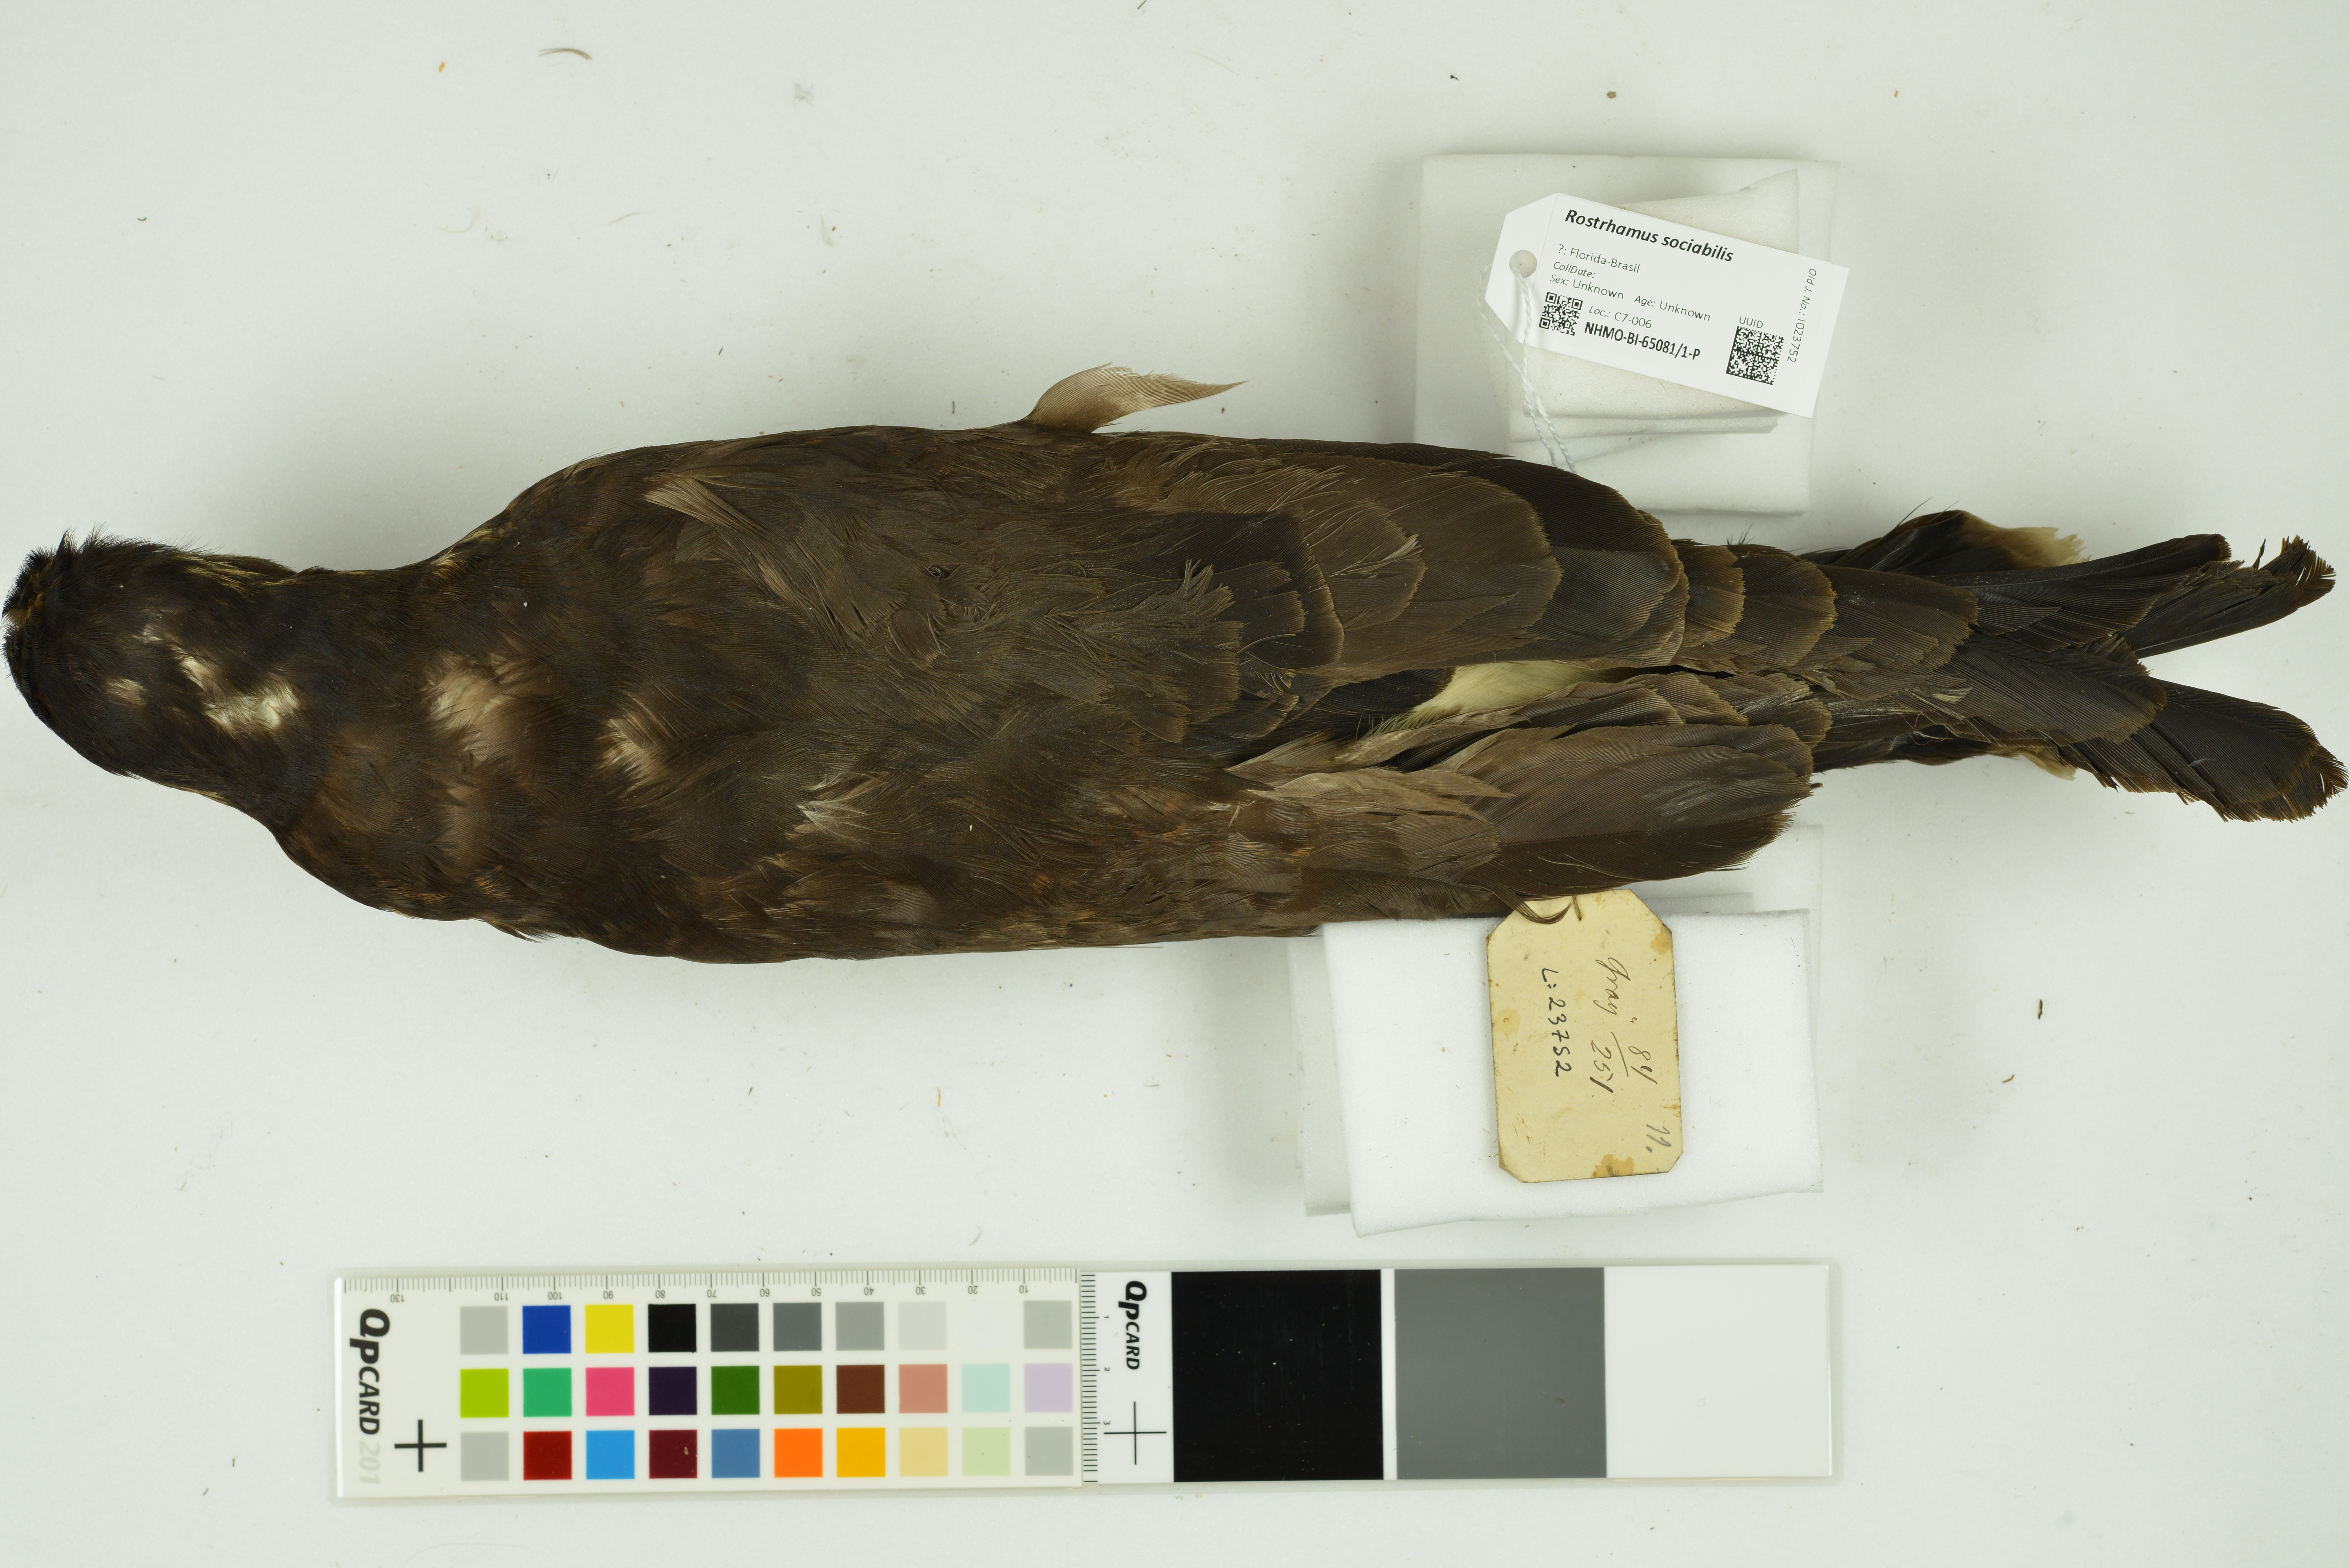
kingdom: Animalia
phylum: Chordata
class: Aves
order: Accipitriformes
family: Accipitridae
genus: Rostrhamus
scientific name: Rostrhamus sociabilis
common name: Snail kite
